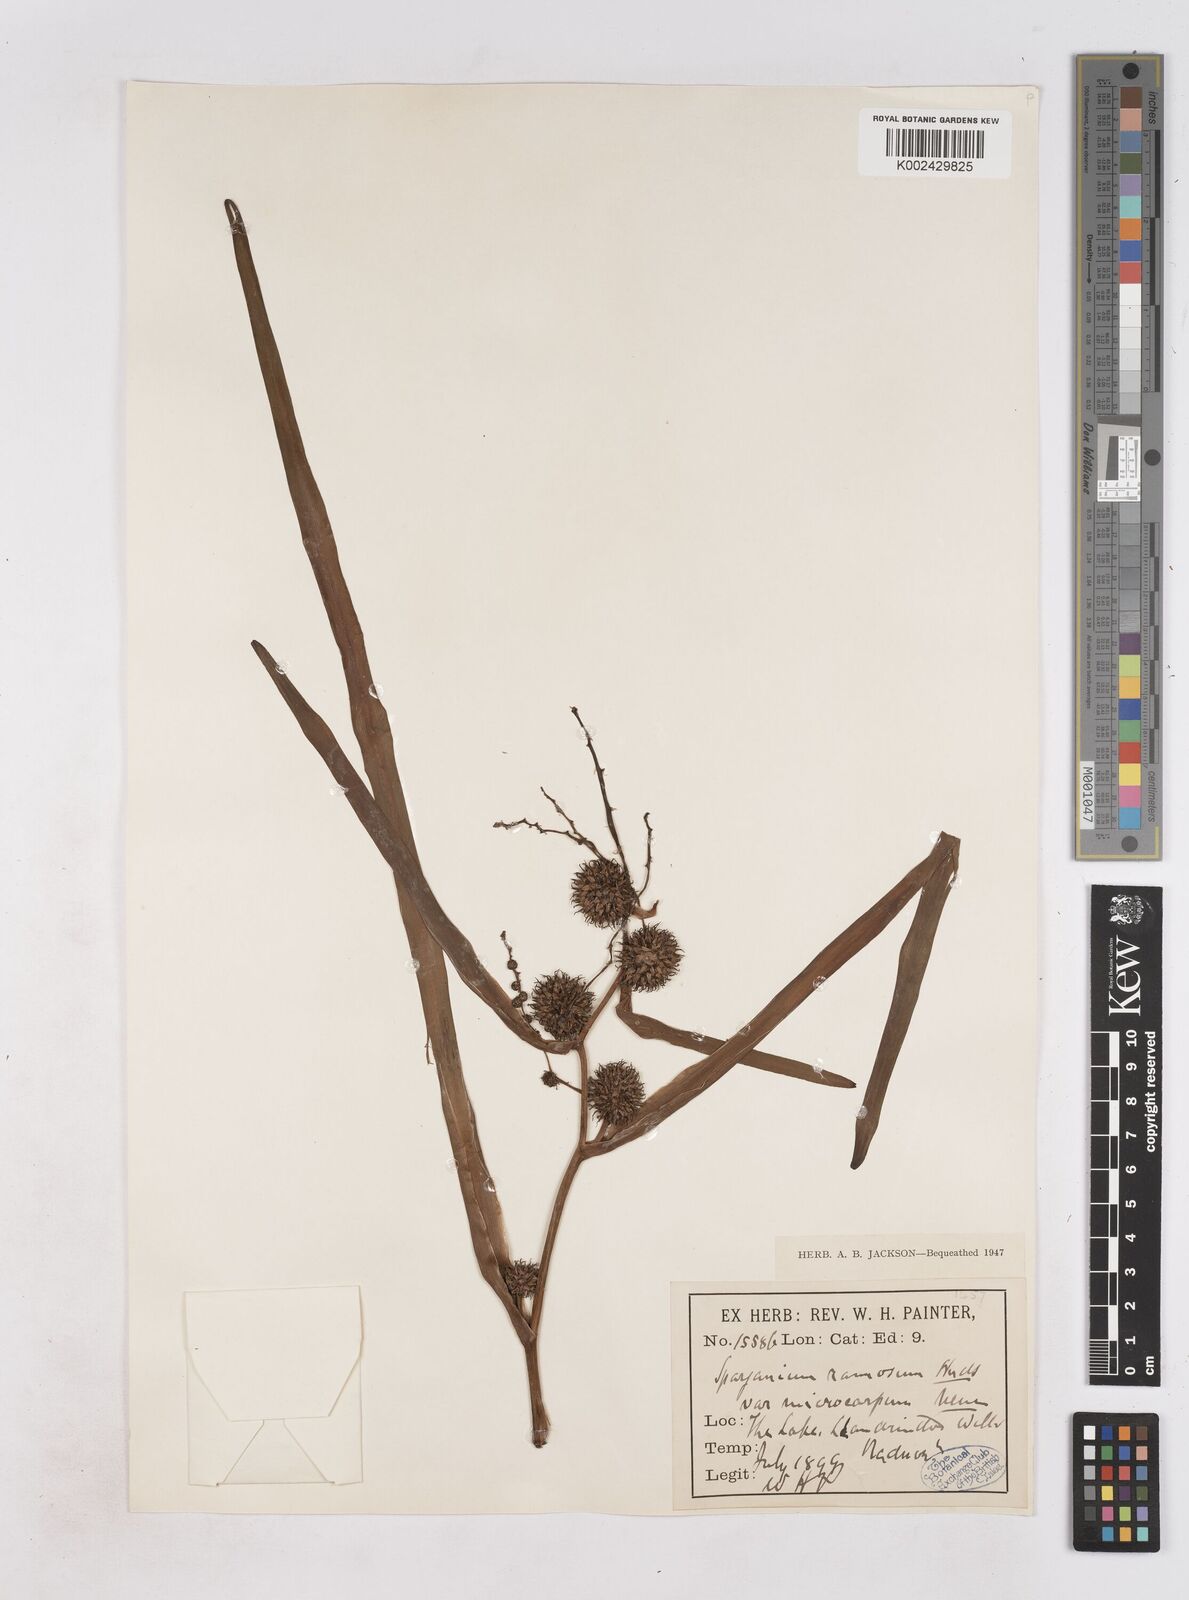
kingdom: Plantae
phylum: Tracheophyta
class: Liliopsida
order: Poales
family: Typhaceae
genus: Sparganium
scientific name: Sparganium erectum
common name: Branched bur-reed
